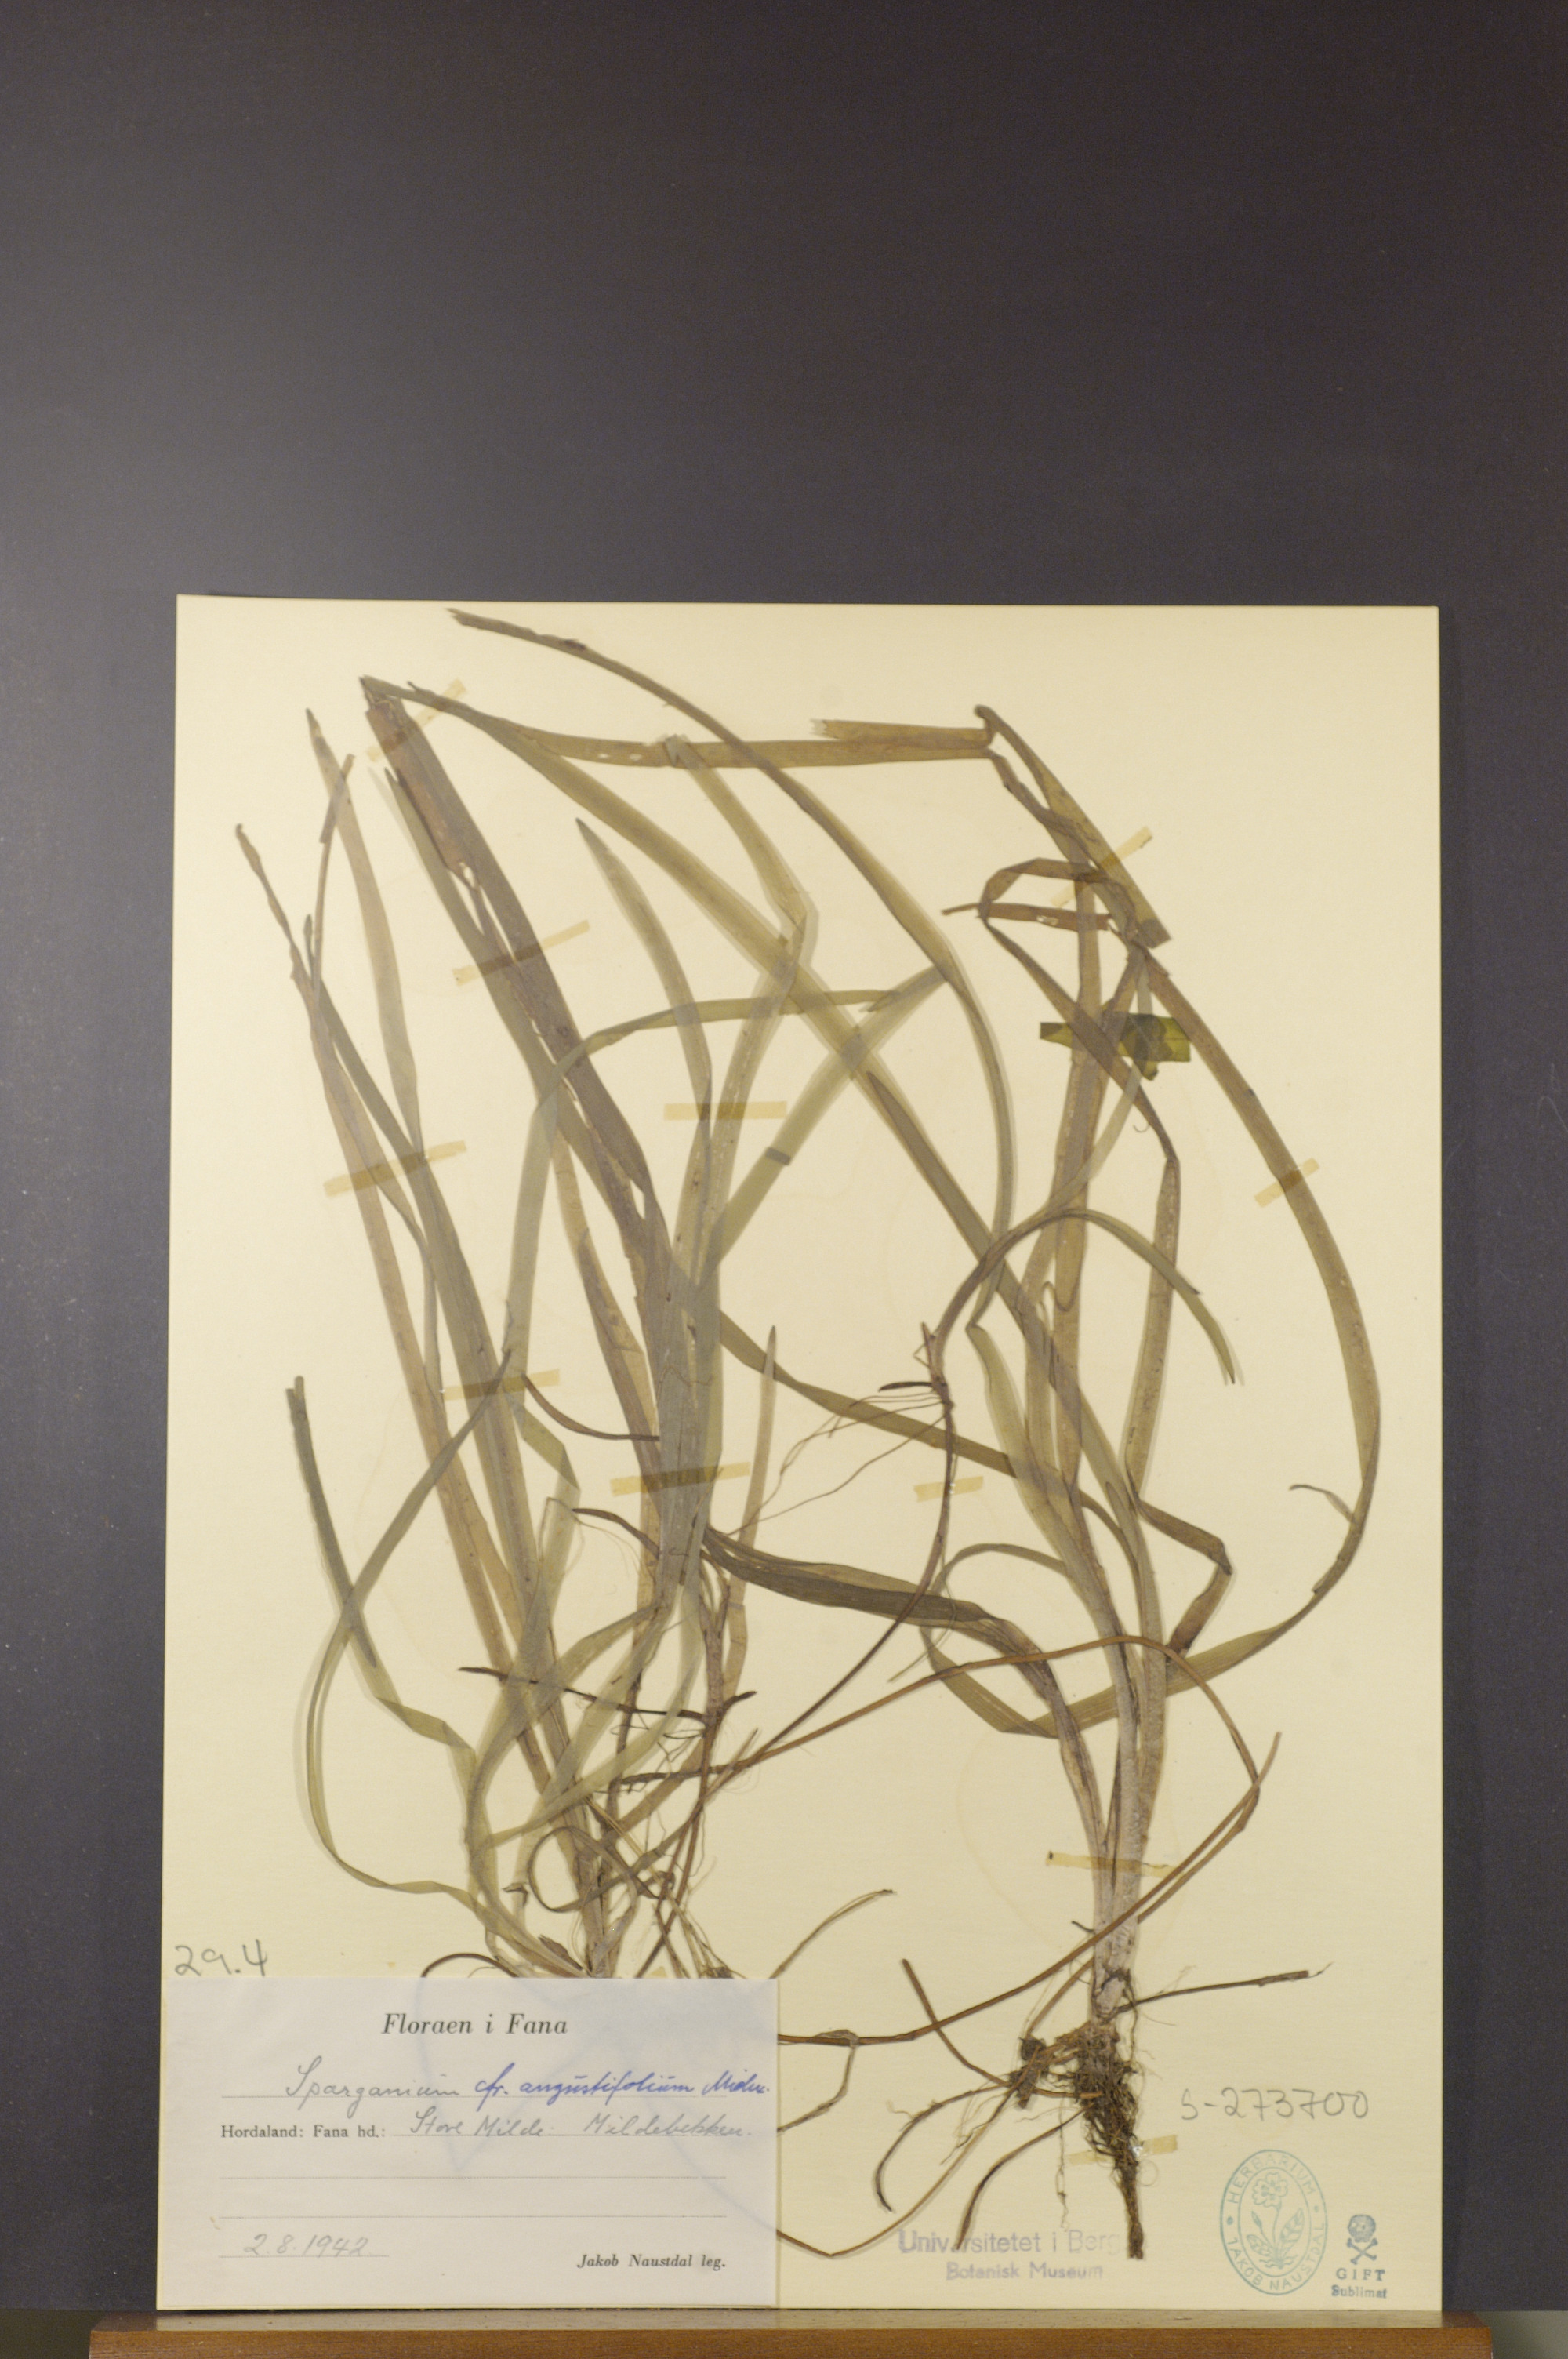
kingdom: Plantae
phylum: Tracheophyta
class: Liliopsida
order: Poales
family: Typhaceae
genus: Sparganium
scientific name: Sparganium angustifolium
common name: Floating bur-reed
